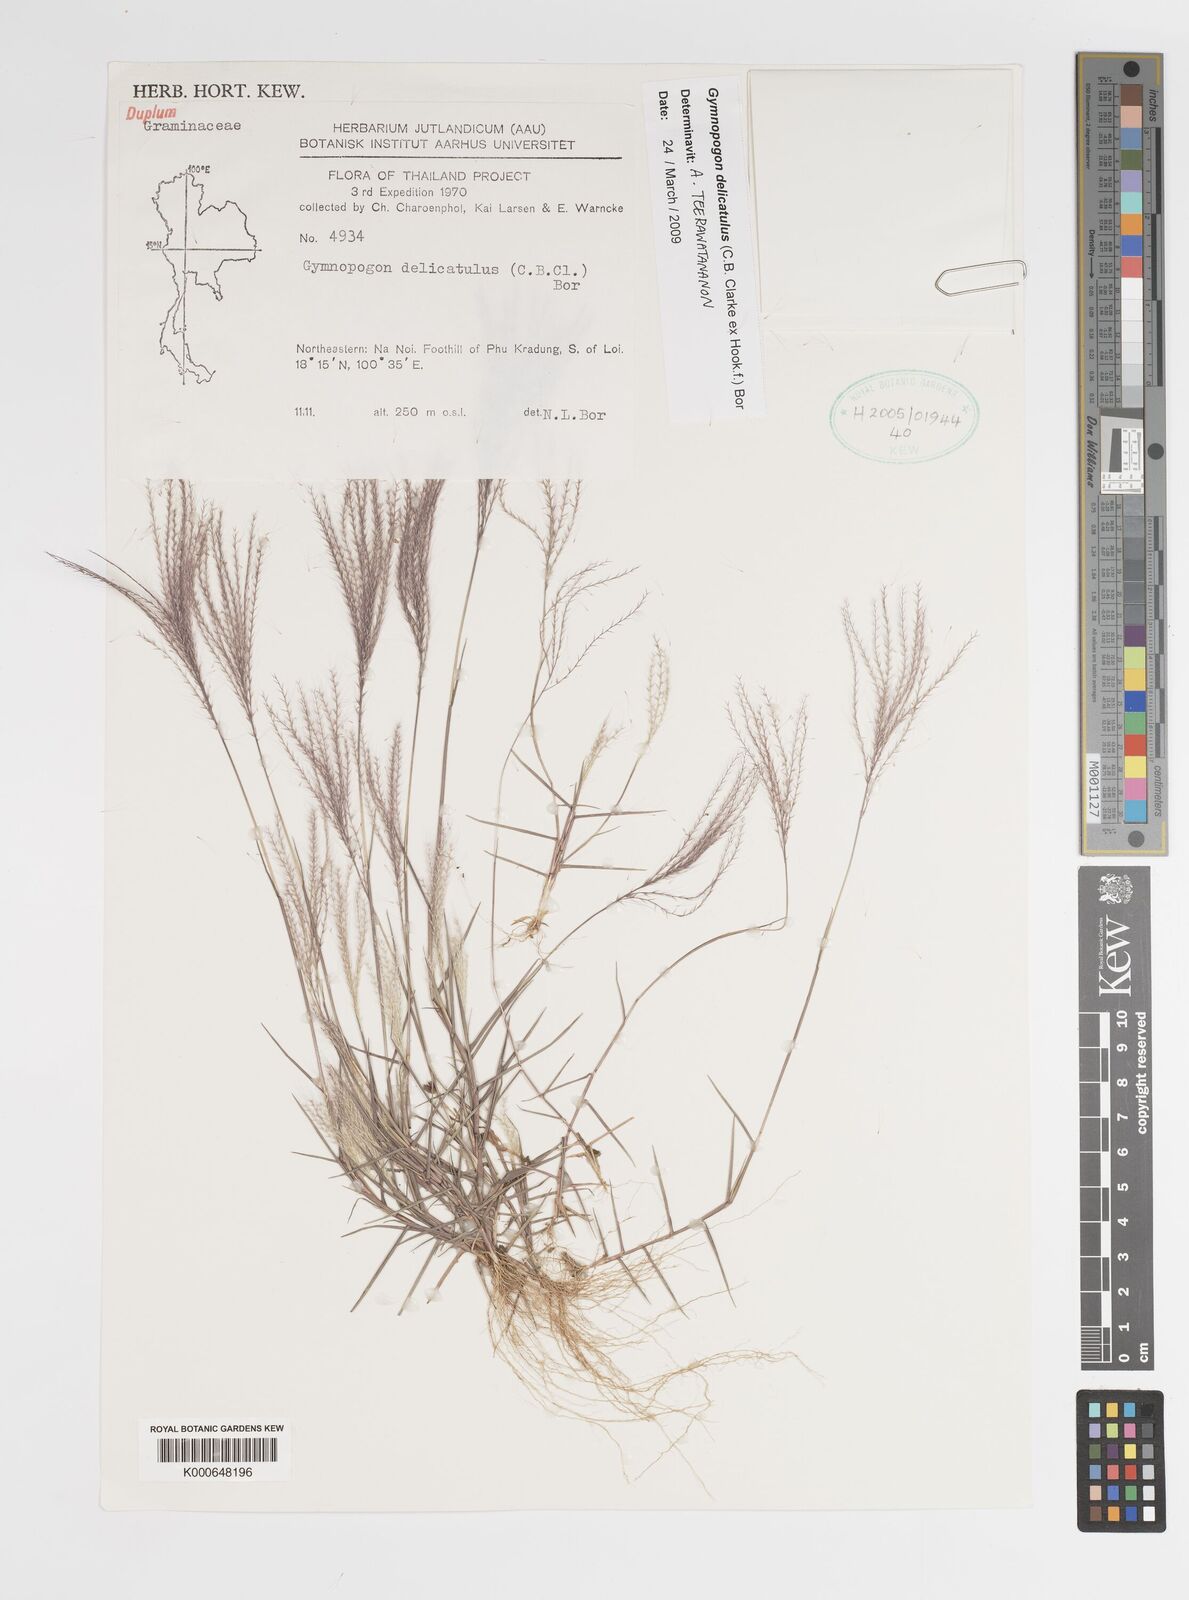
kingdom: Plantae
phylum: Tracheophyta
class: Liliopsida
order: Poales
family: Poaceae
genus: Gymnopogon
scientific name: Gymnopogon delicatulus
